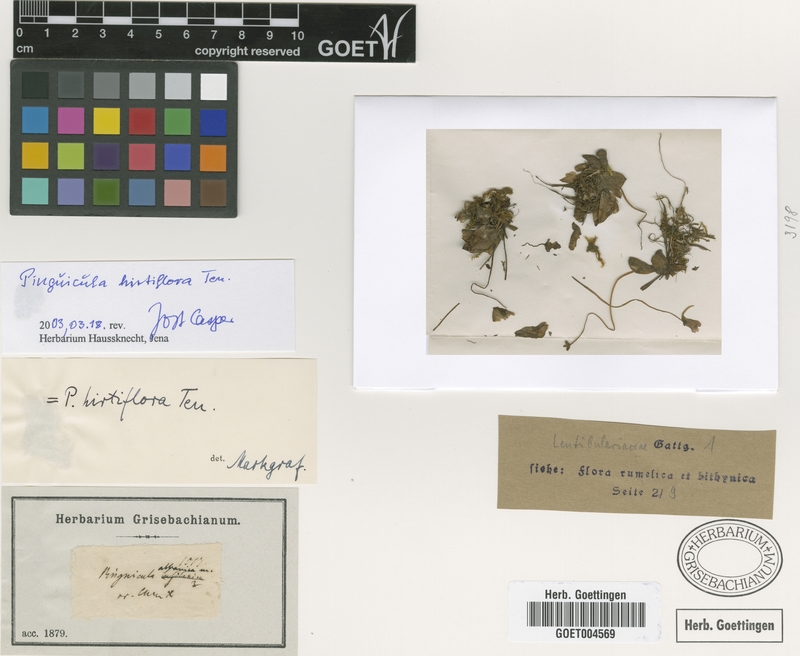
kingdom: Plantae
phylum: Tracheophyta
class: Magnoliopsida
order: Lamiales
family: Lentibulariaceae
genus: Pinguicula
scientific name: Pinguicula crystallina
